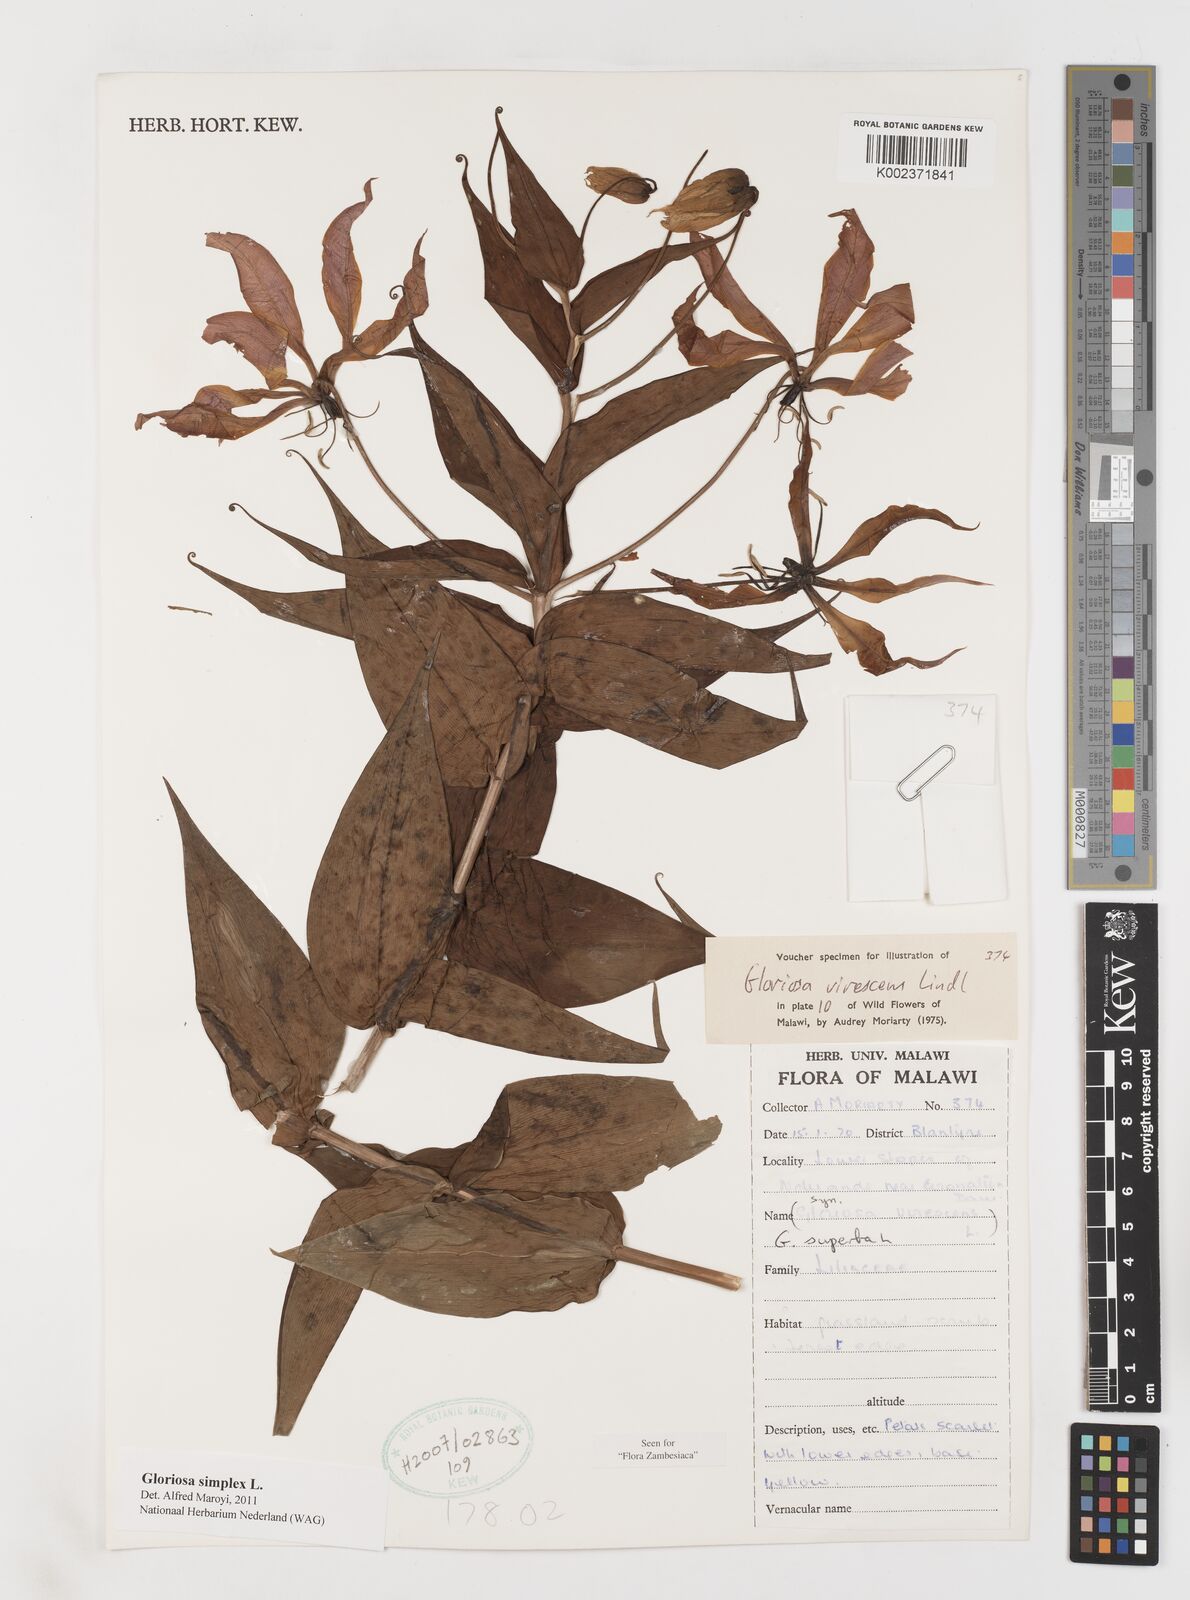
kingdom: Plantae
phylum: Tracheophyta
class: Liliopsida
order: Liliales
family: Colchicaceae
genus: Gloriosa
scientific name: Gloriosa simplex
